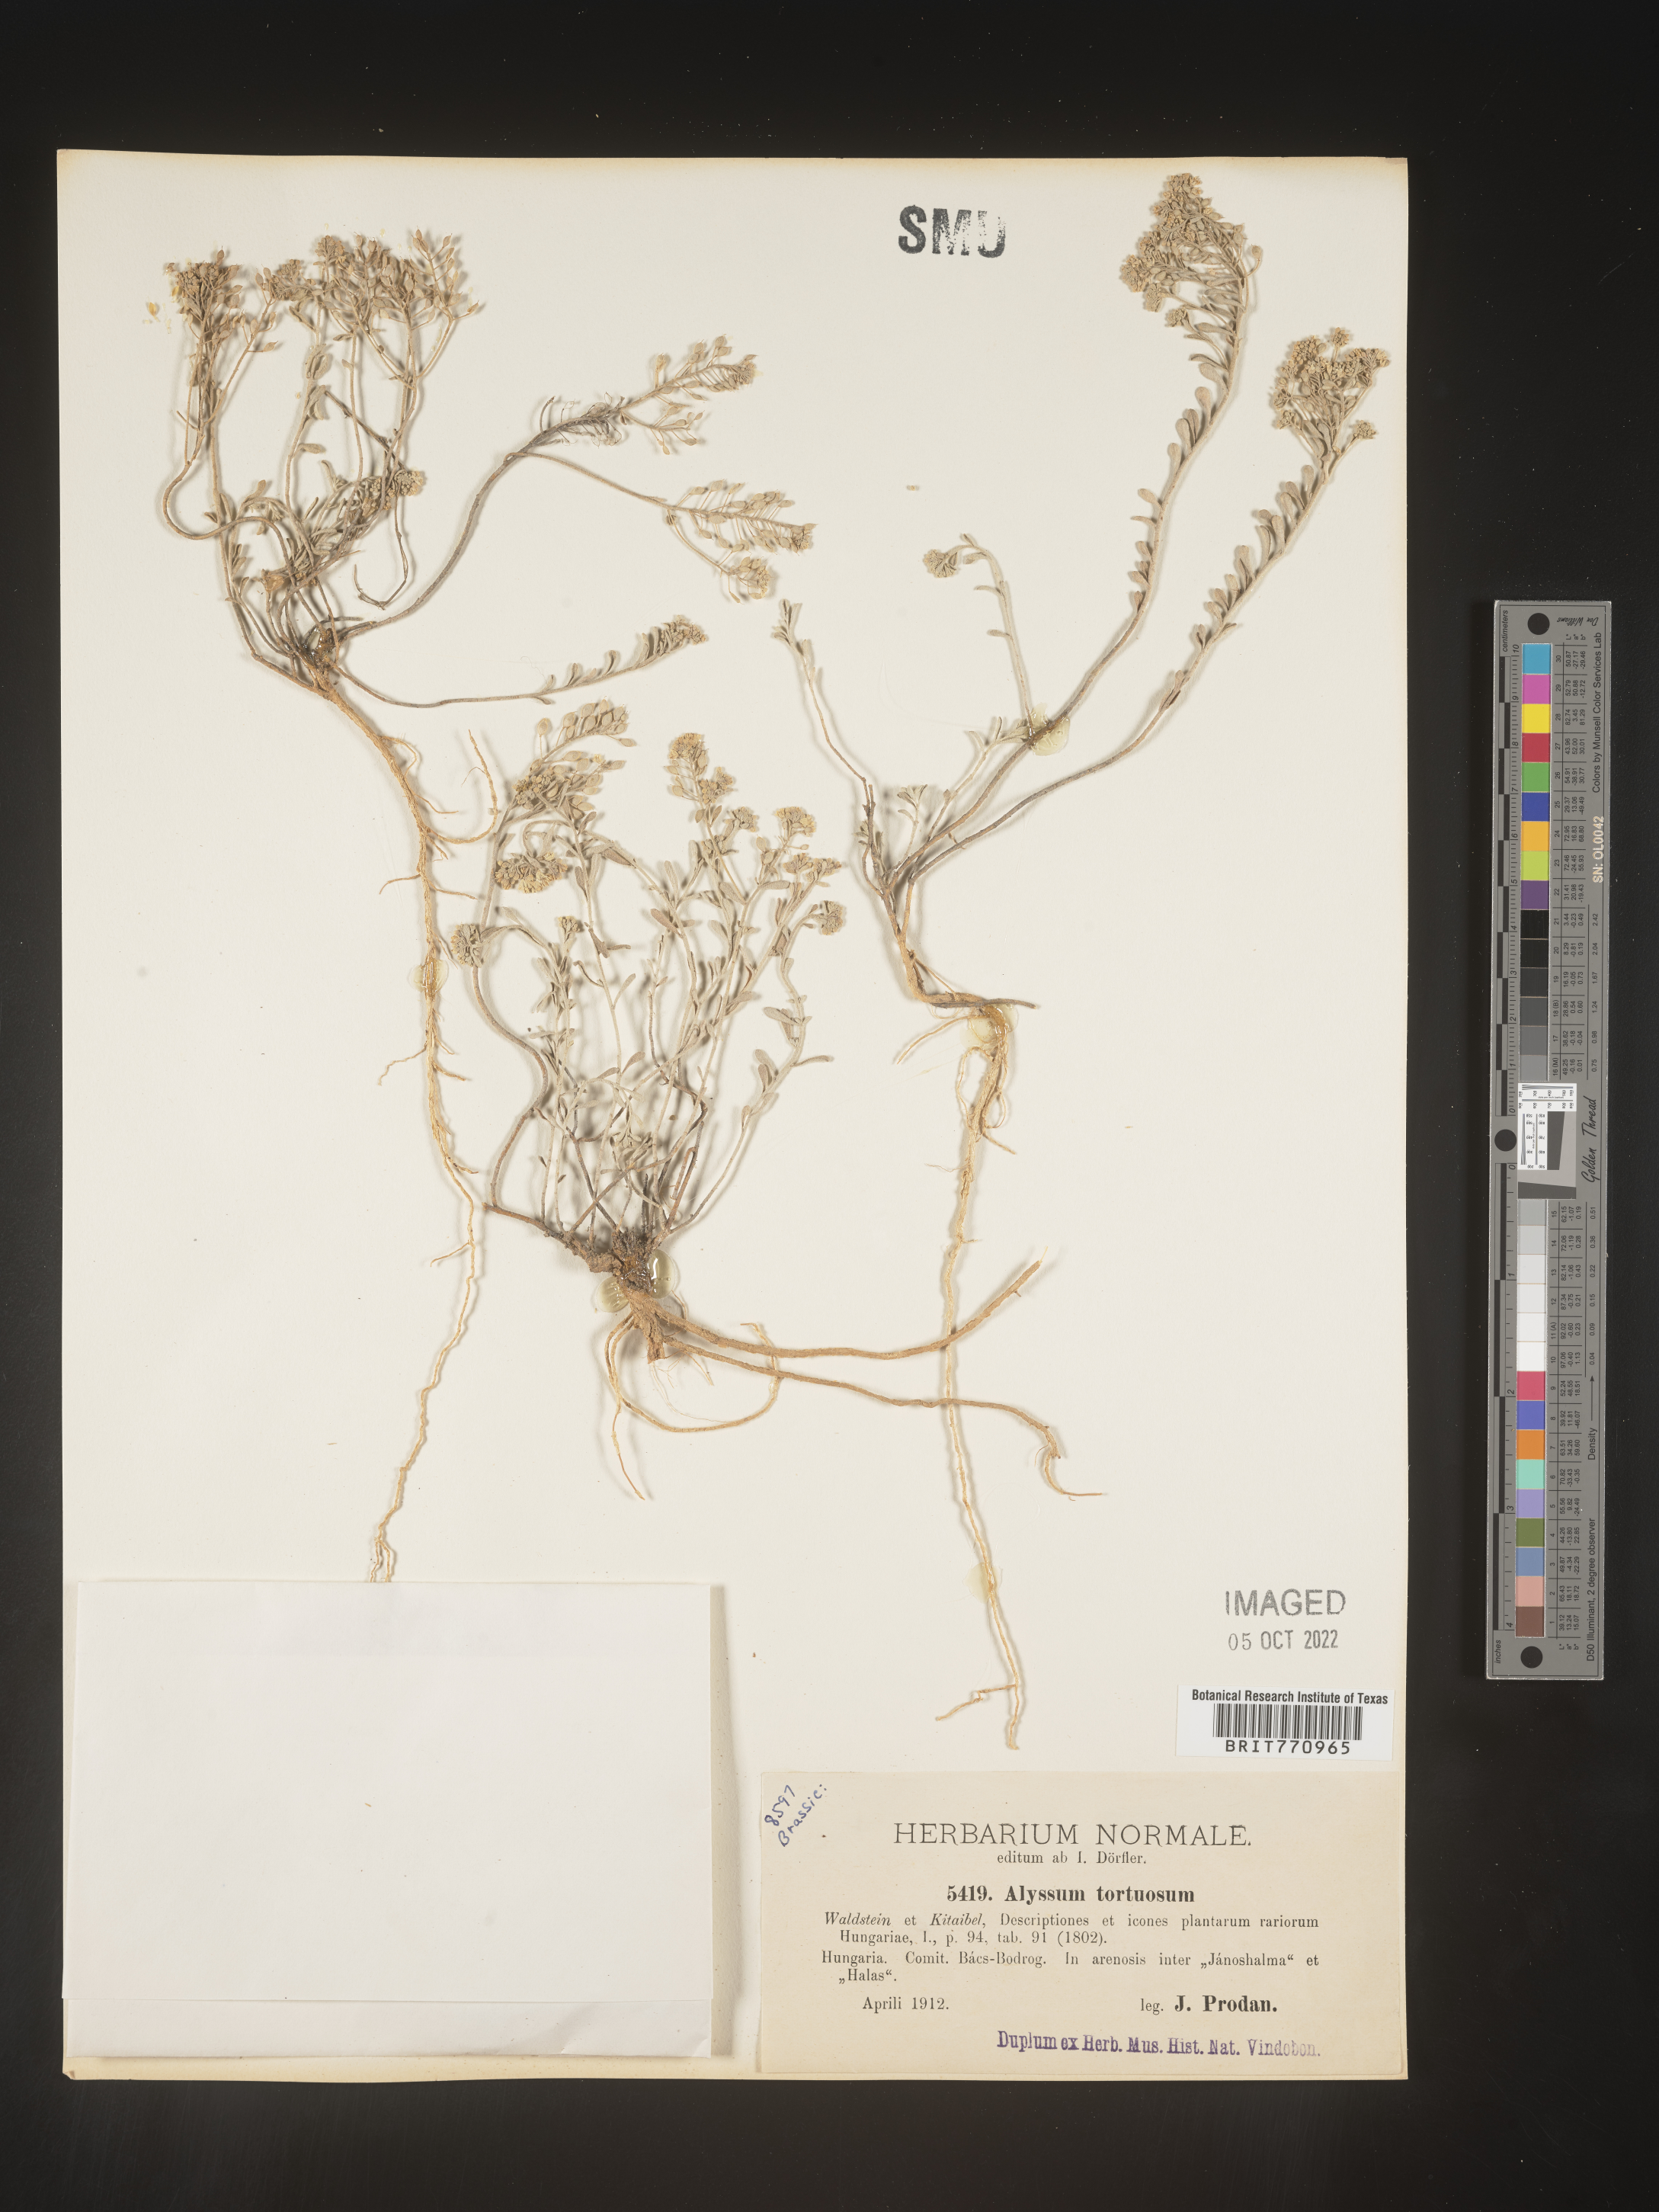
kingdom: Plantae
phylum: Tracheophyta
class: Magnoliopsida
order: Brassicales
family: Brassicaceae
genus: Alyssum
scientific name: Alyssum
